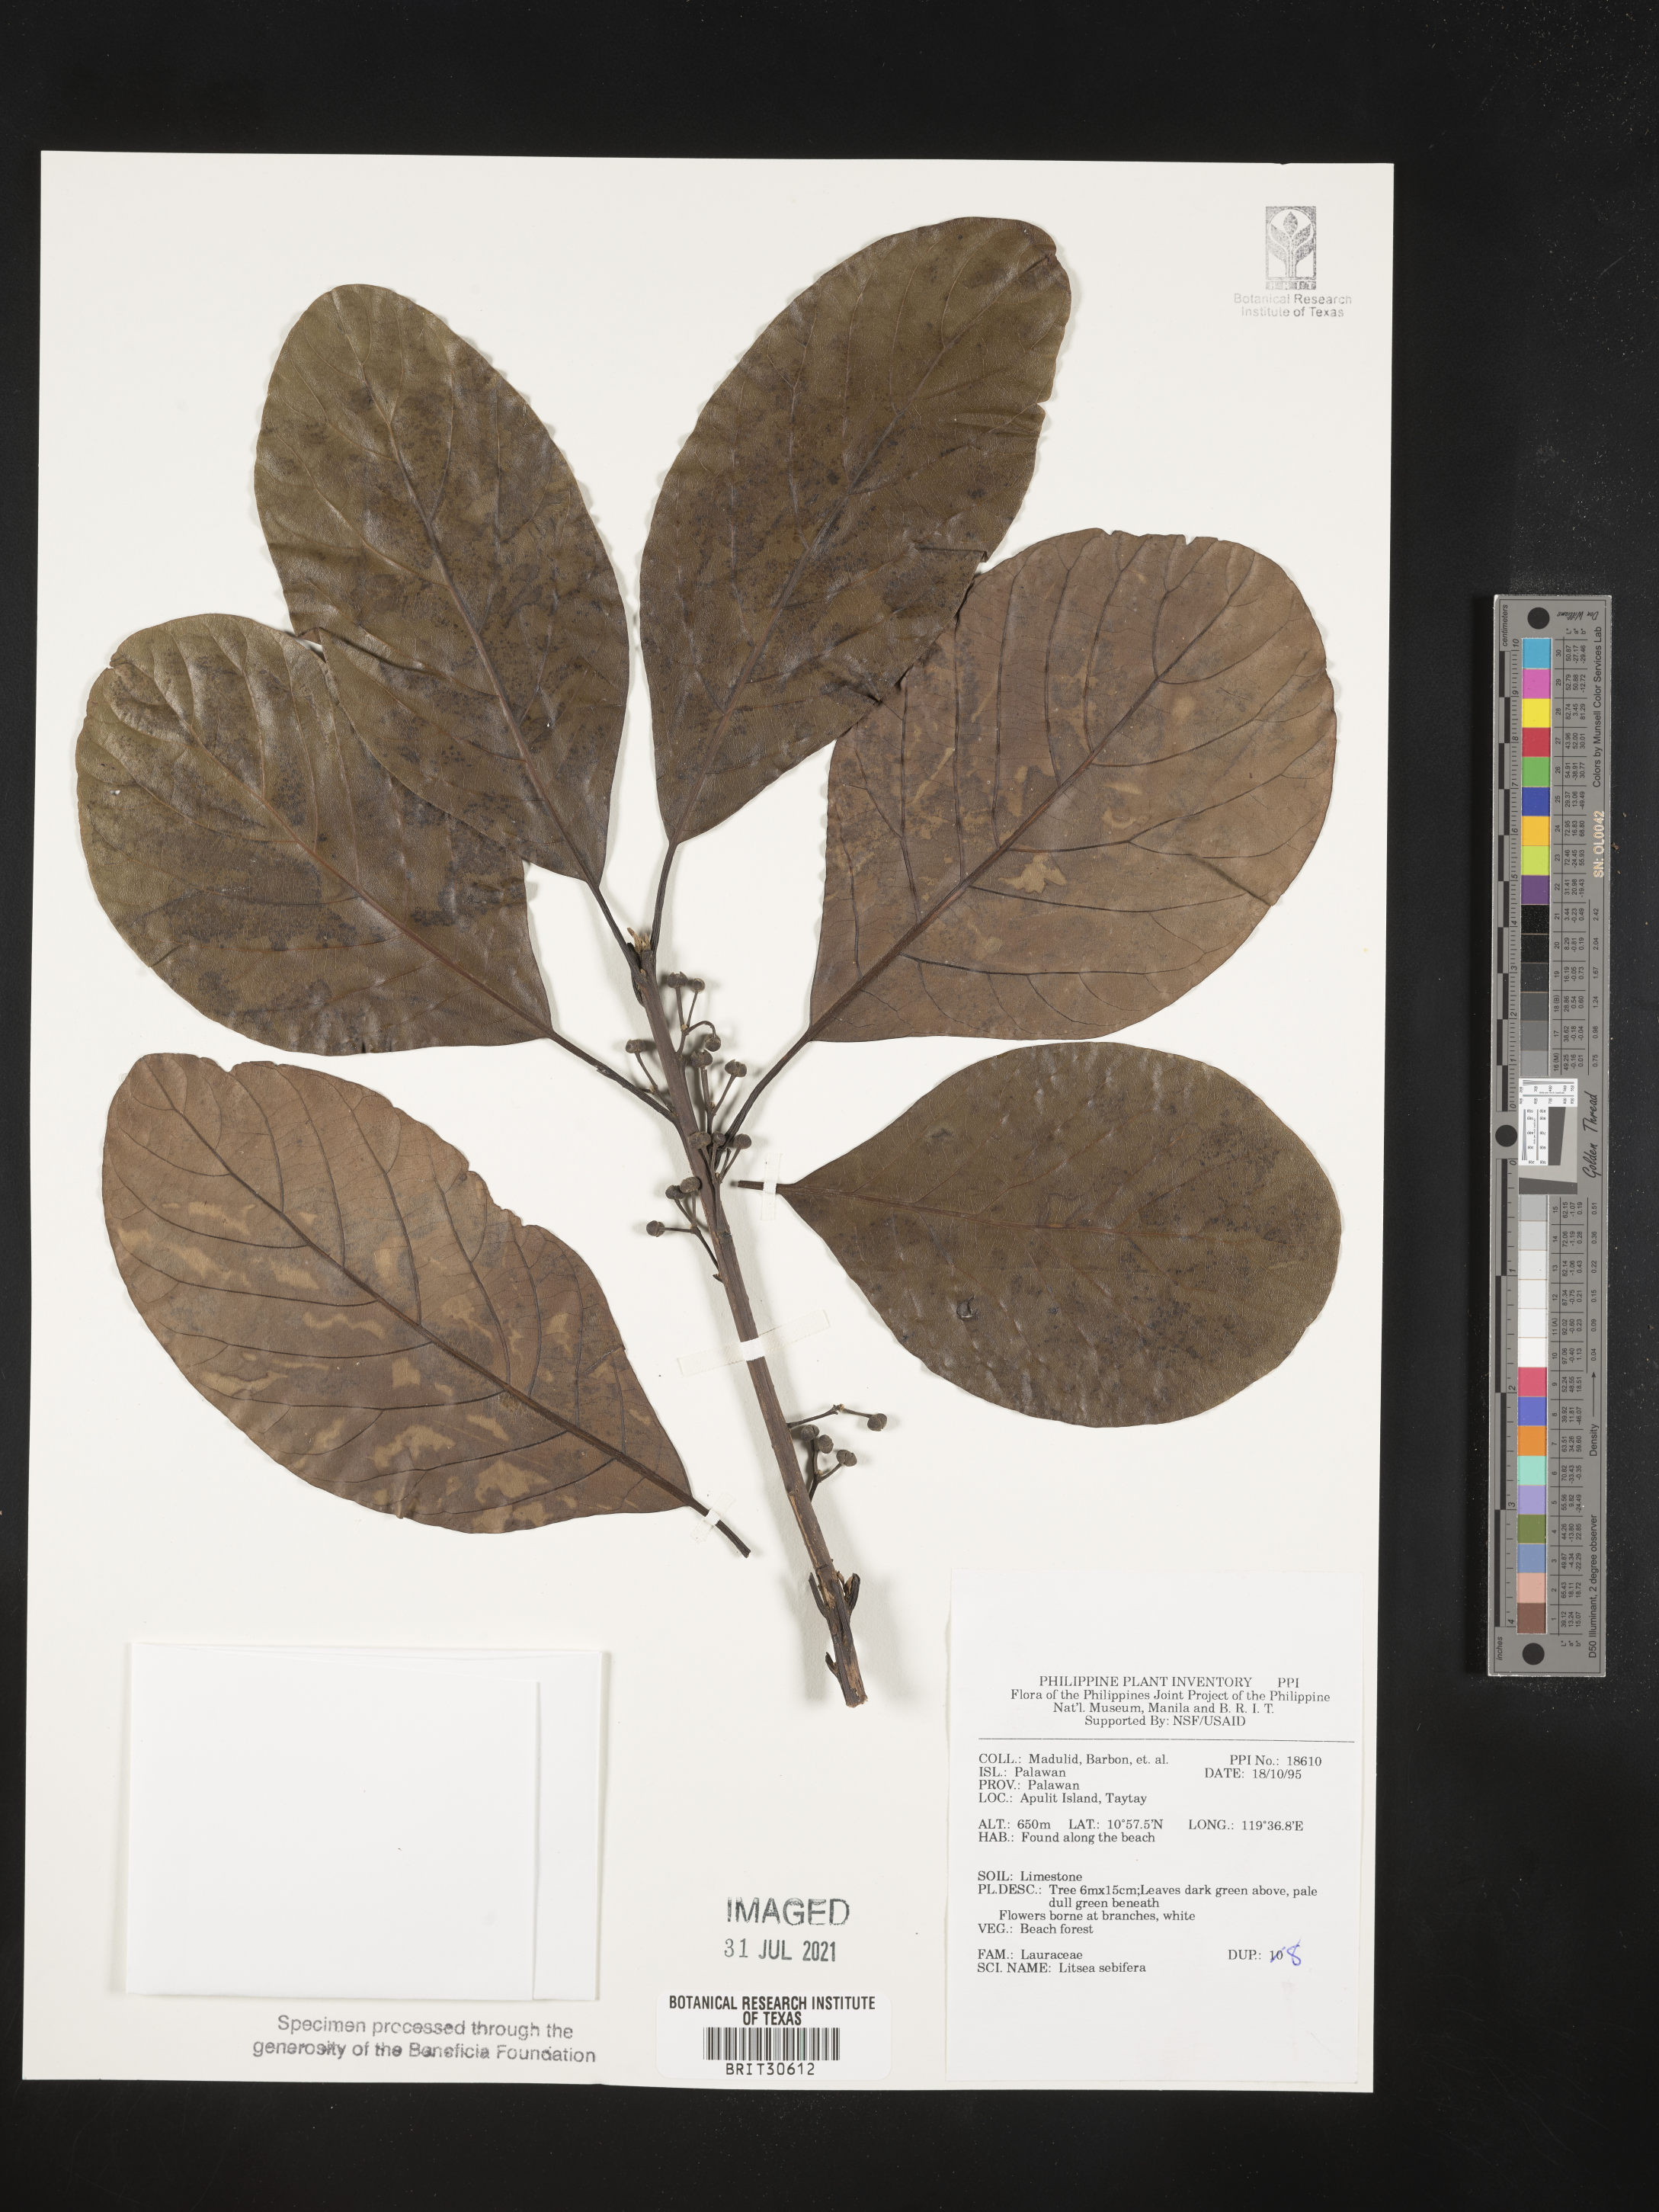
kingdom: Plantae
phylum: Tracheophyta
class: Magnoliopsida
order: Laurales
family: Lauraceae
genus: Litsea
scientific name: Litsea glutinosa
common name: Indian-laurel
